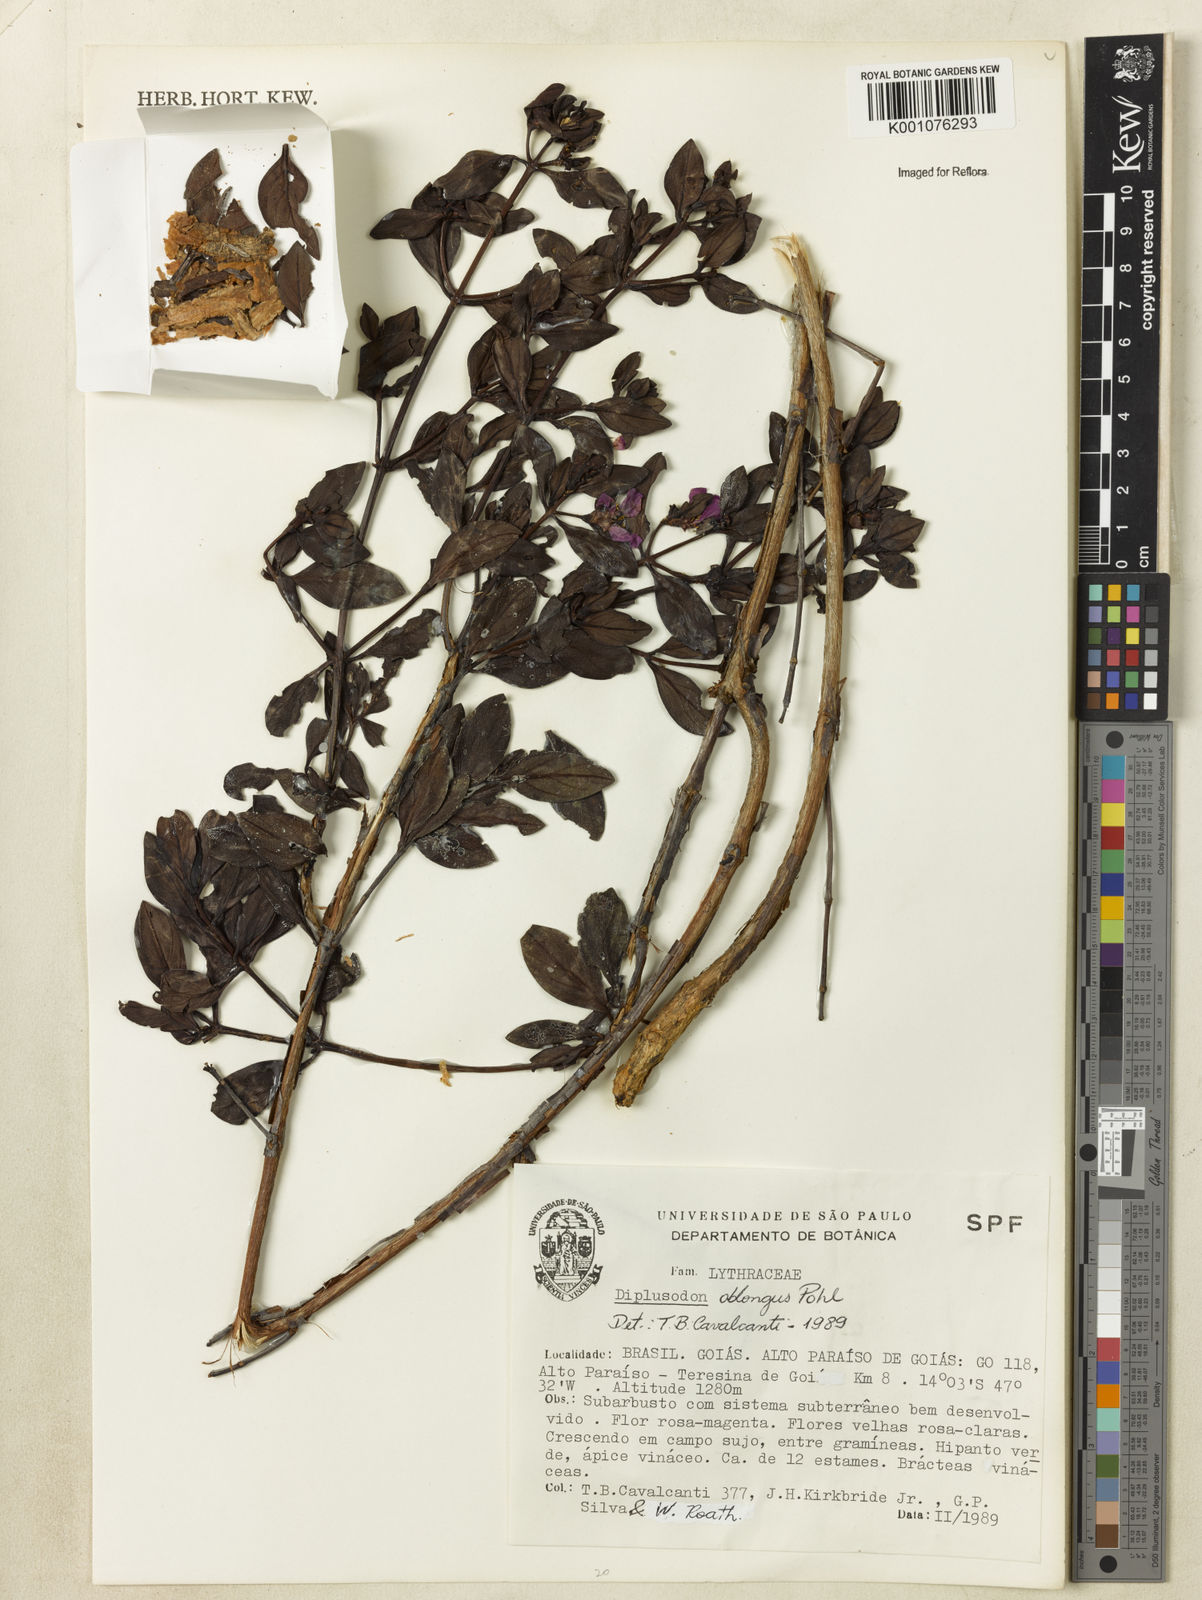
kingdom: Plantae
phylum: Tracheophyta
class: Magnoliopsida
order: Myrtales
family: Lythraceae
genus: Diplusodon
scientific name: Diplusodon oblongus
